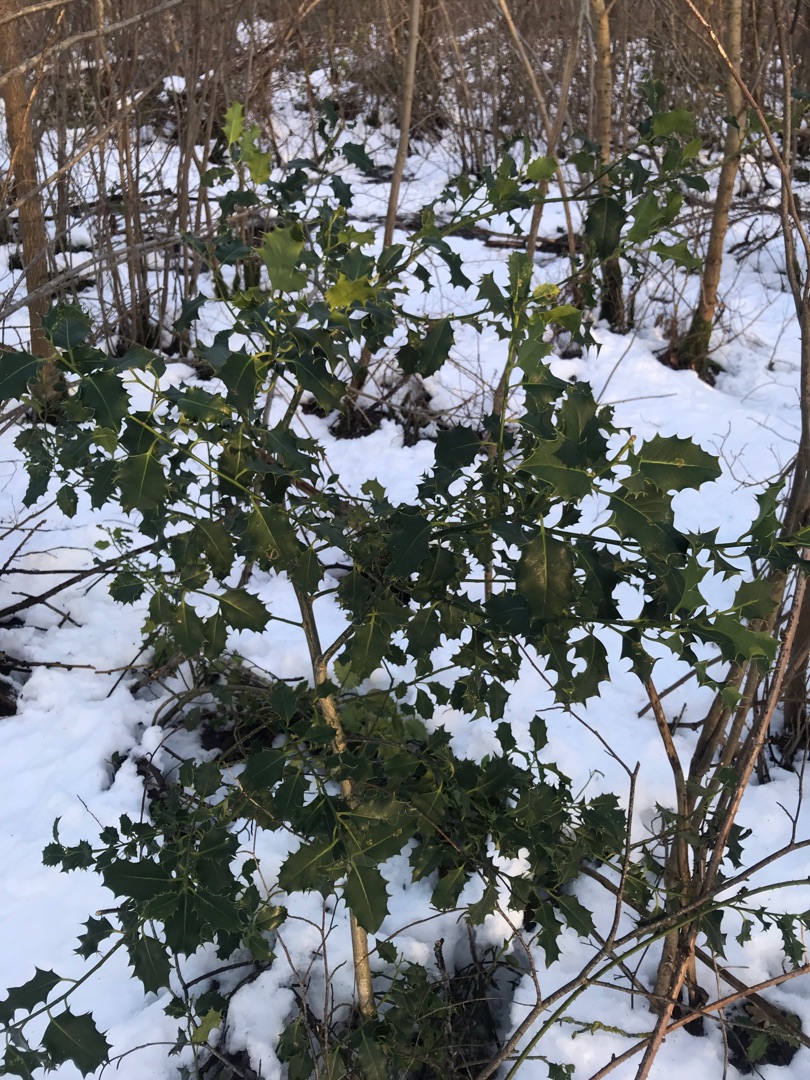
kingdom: Plantae
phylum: Tracheophyta
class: Magnoliopsida
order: Aquifoliales
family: Aquifoliaceae
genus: Ilex
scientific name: Ilex aquifolium
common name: Kristtorn
